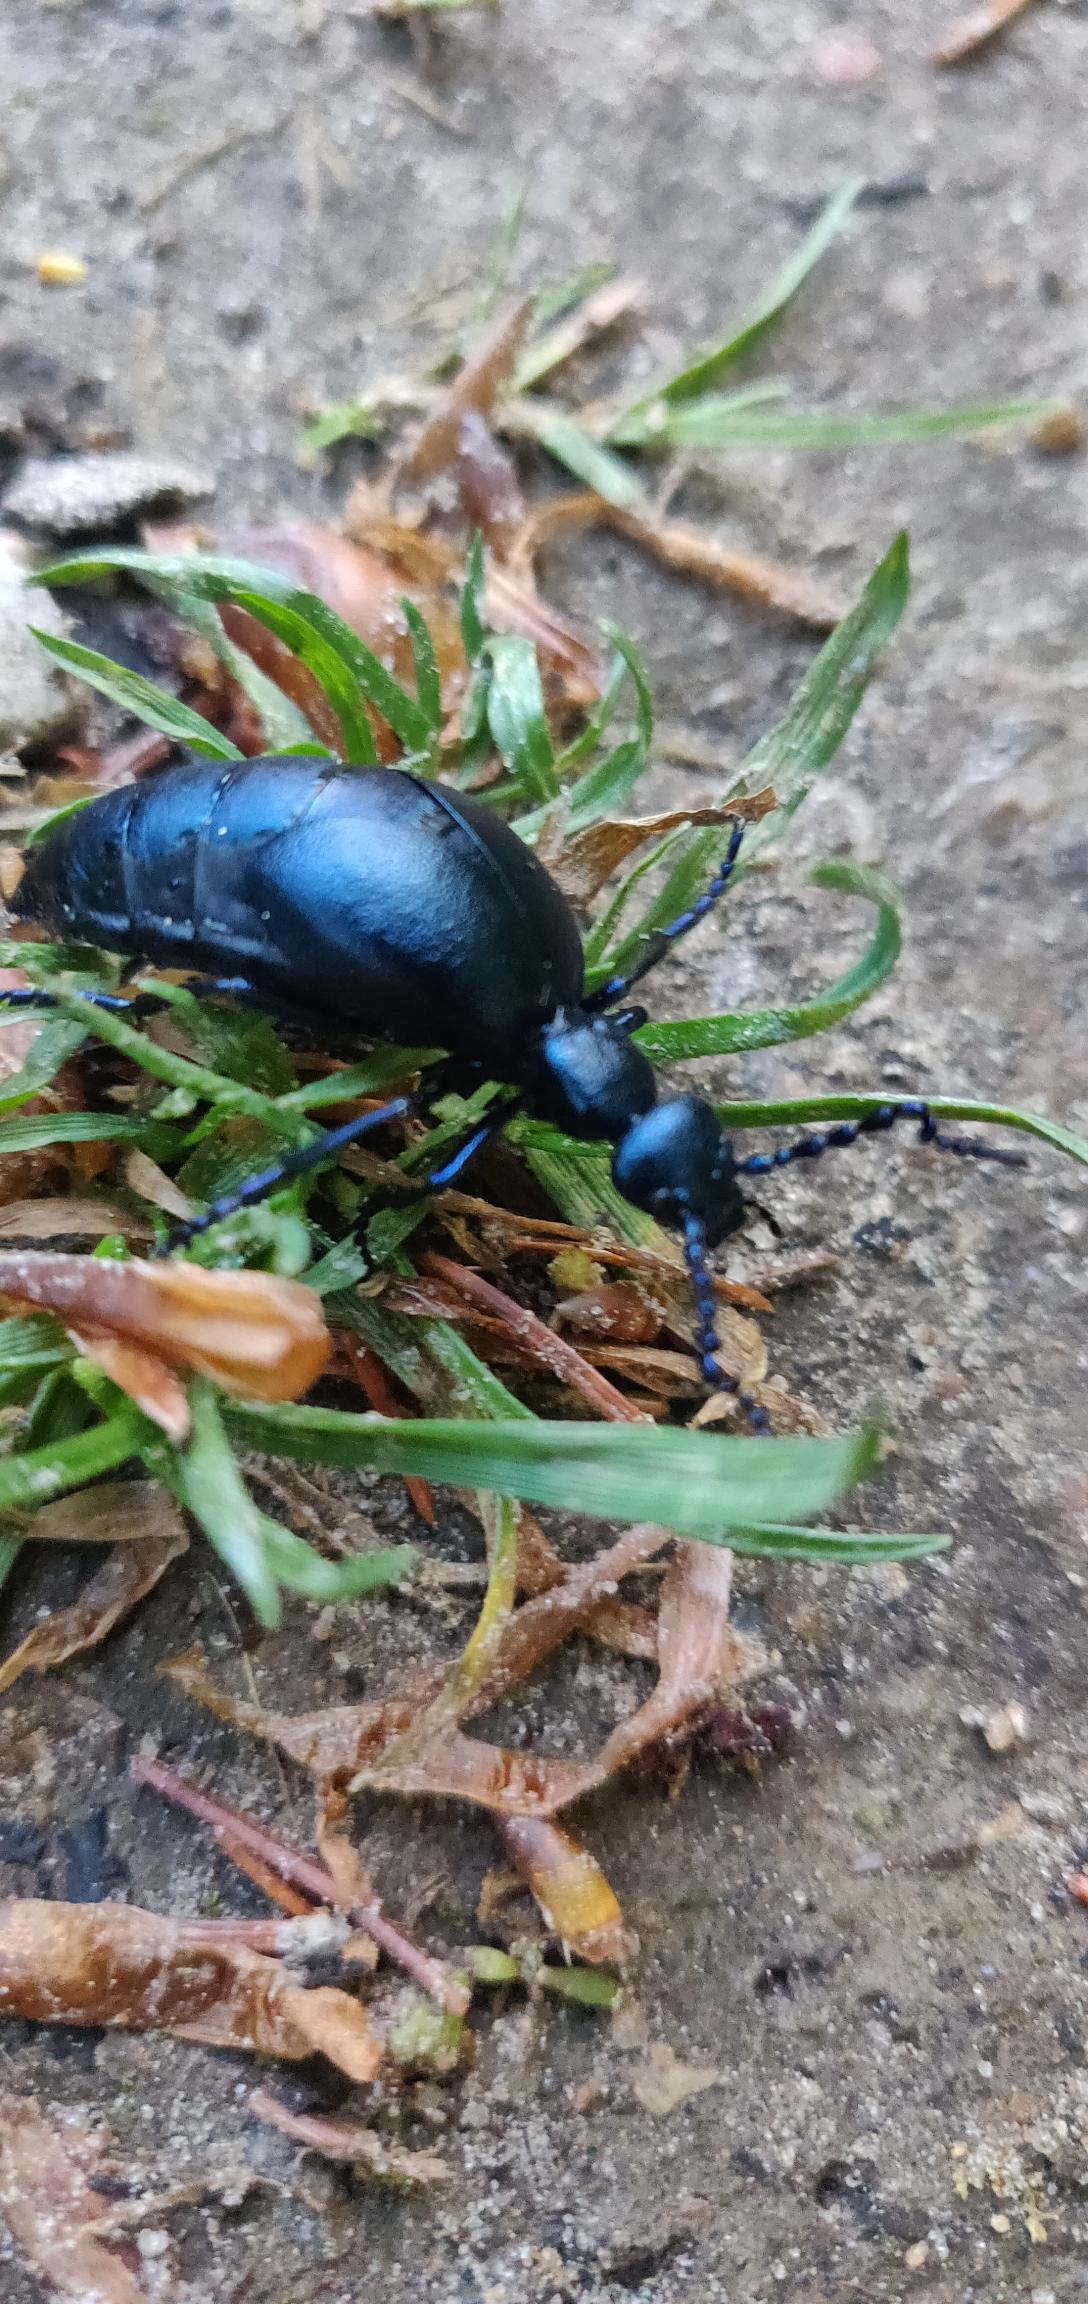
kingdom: Animalia
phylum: Arthropoda
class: Insecta
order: Coleoptera
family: Meloidae
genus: Meloe
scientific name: Meloe violaceus
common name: Blå oliebille
